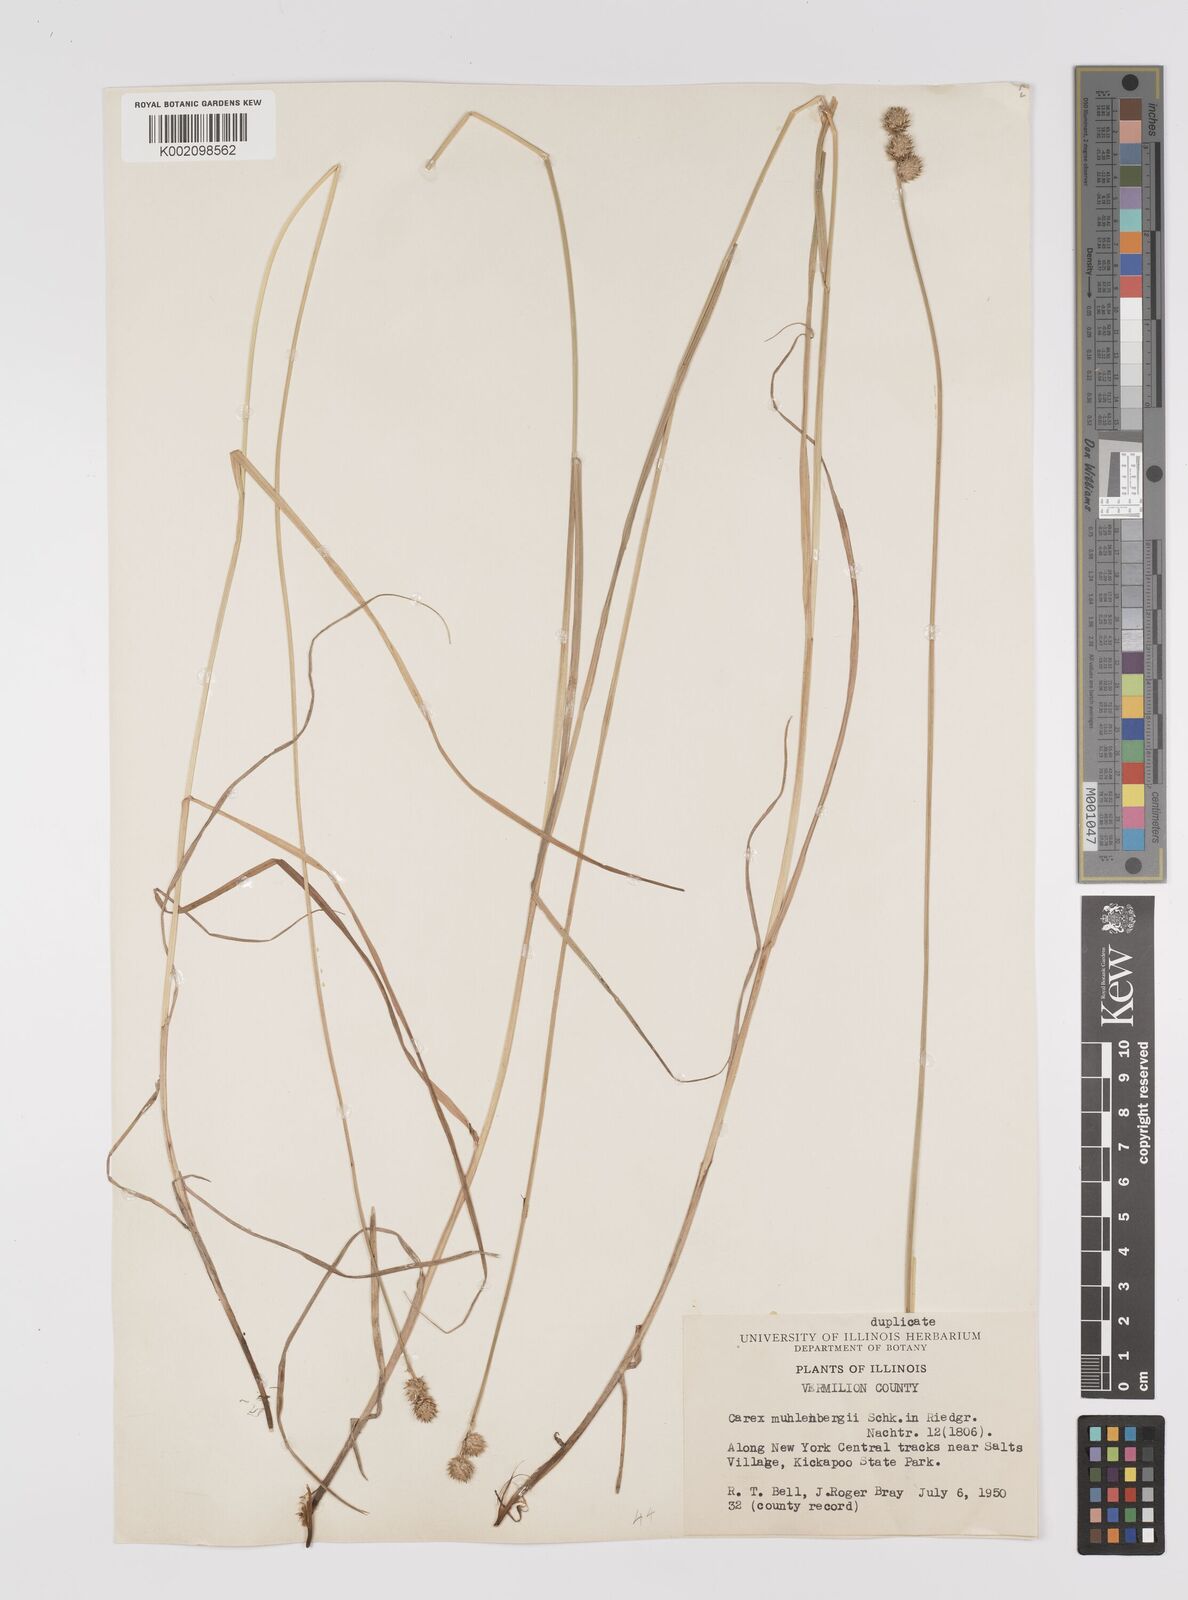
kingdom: Plantae
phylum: Tracheophyta
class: Liliopsida
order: Poales
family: Cyperaceae
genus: Carex
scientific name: Carex vulpinoidea
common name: American fox-sedge
